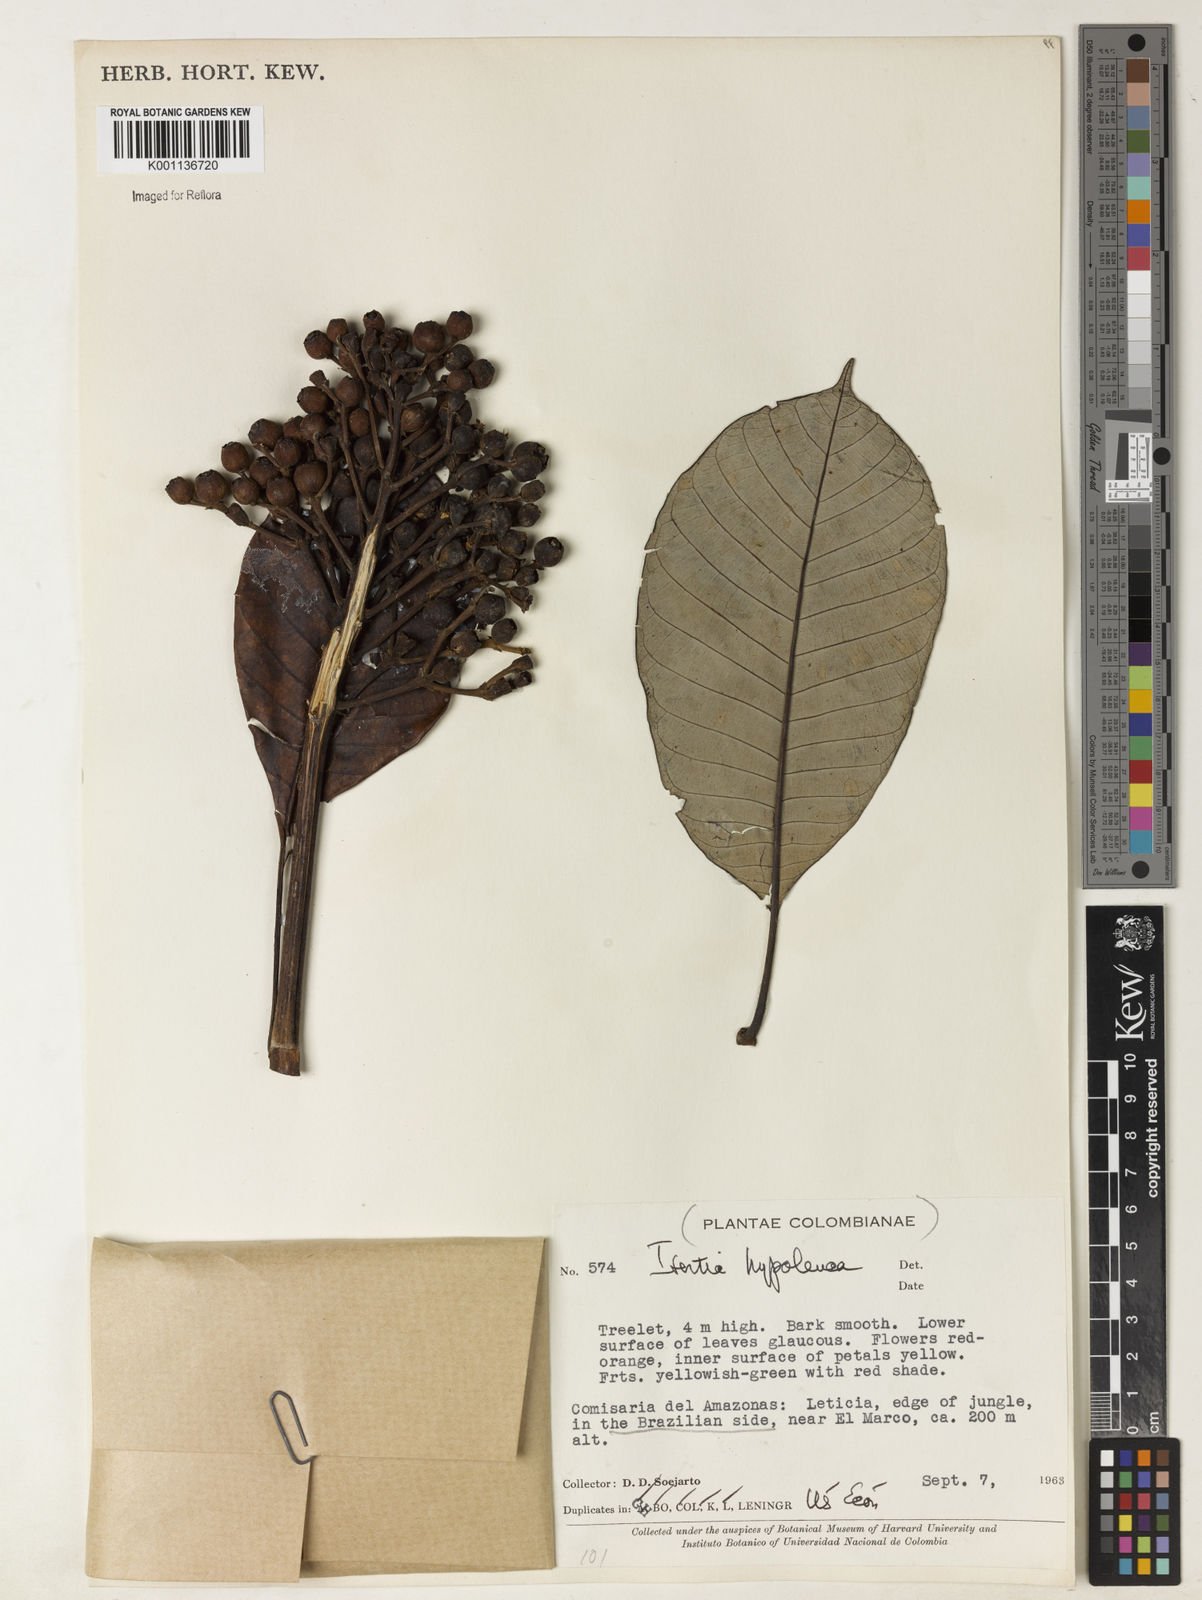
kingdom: Plantae
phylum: Tracheophyta
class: Magnoliopsida
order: Gentianales
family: Rubiaceae
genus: Isertia
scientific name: Isertia hypoleuca
